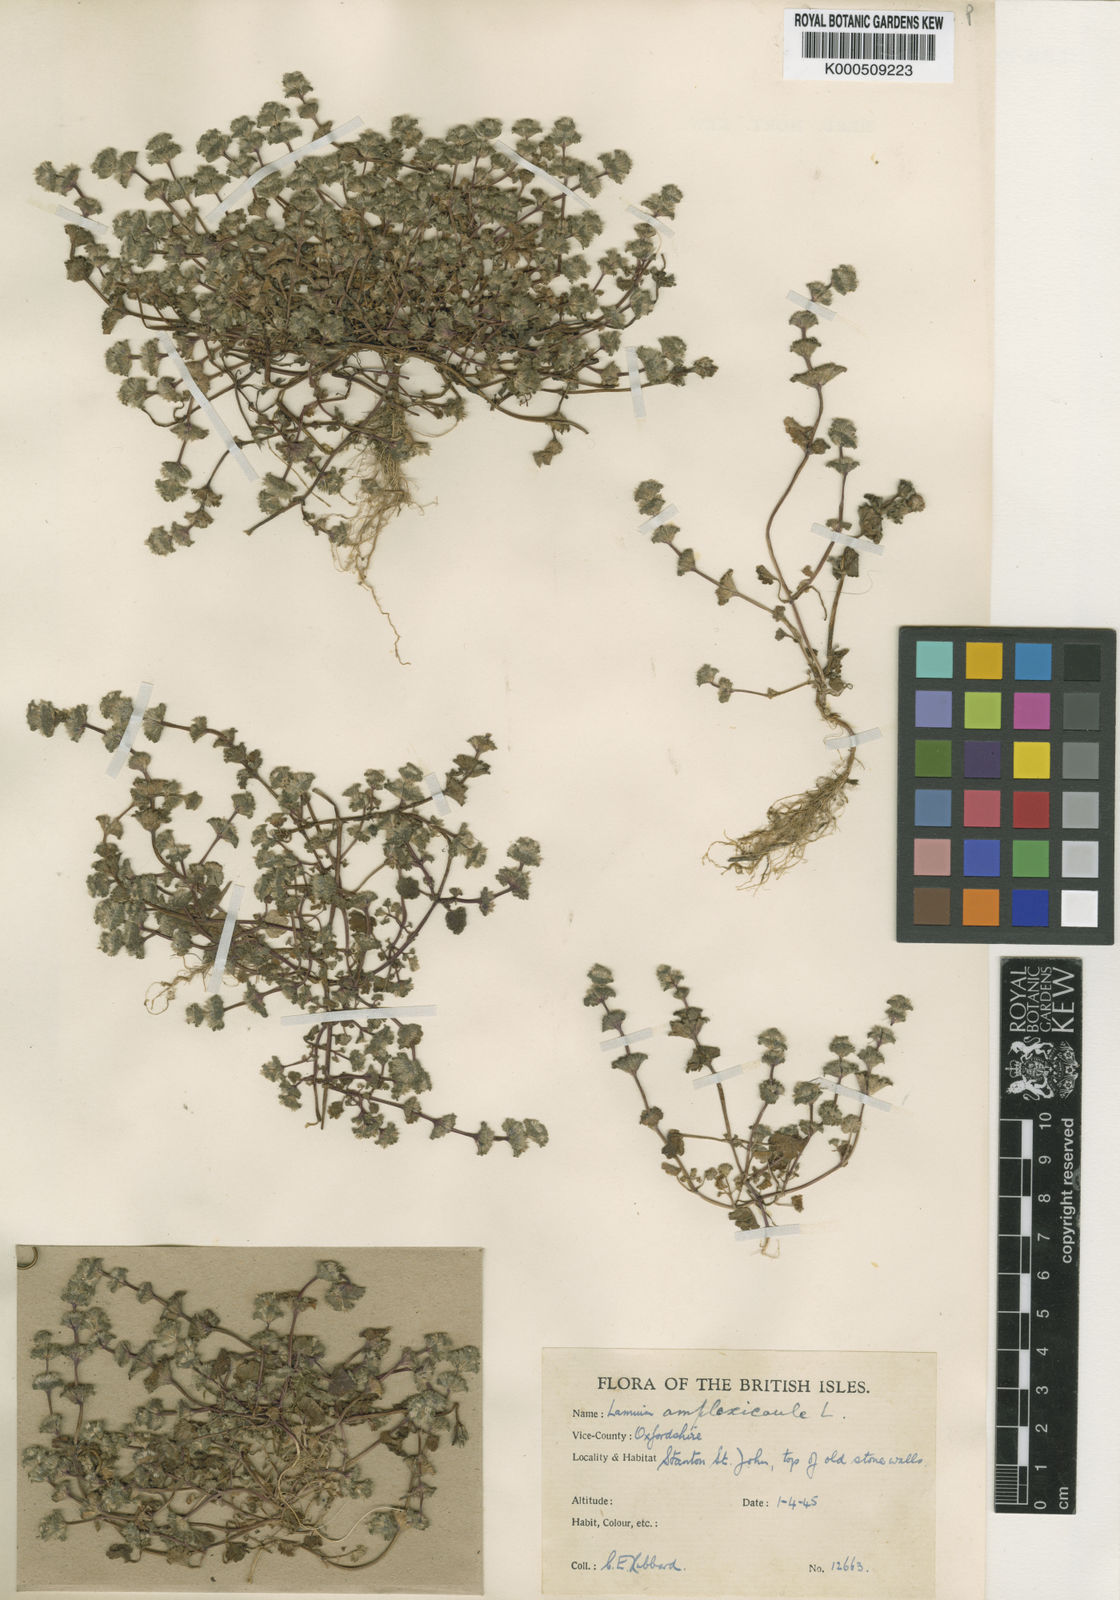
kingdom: Plantae
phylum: Tracheophyta
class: Magnoliopsida
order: Lamiales
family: Lamiaceae
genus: Lamium
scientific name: Lamium amplexicaule
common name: Henbit dead-nettle
